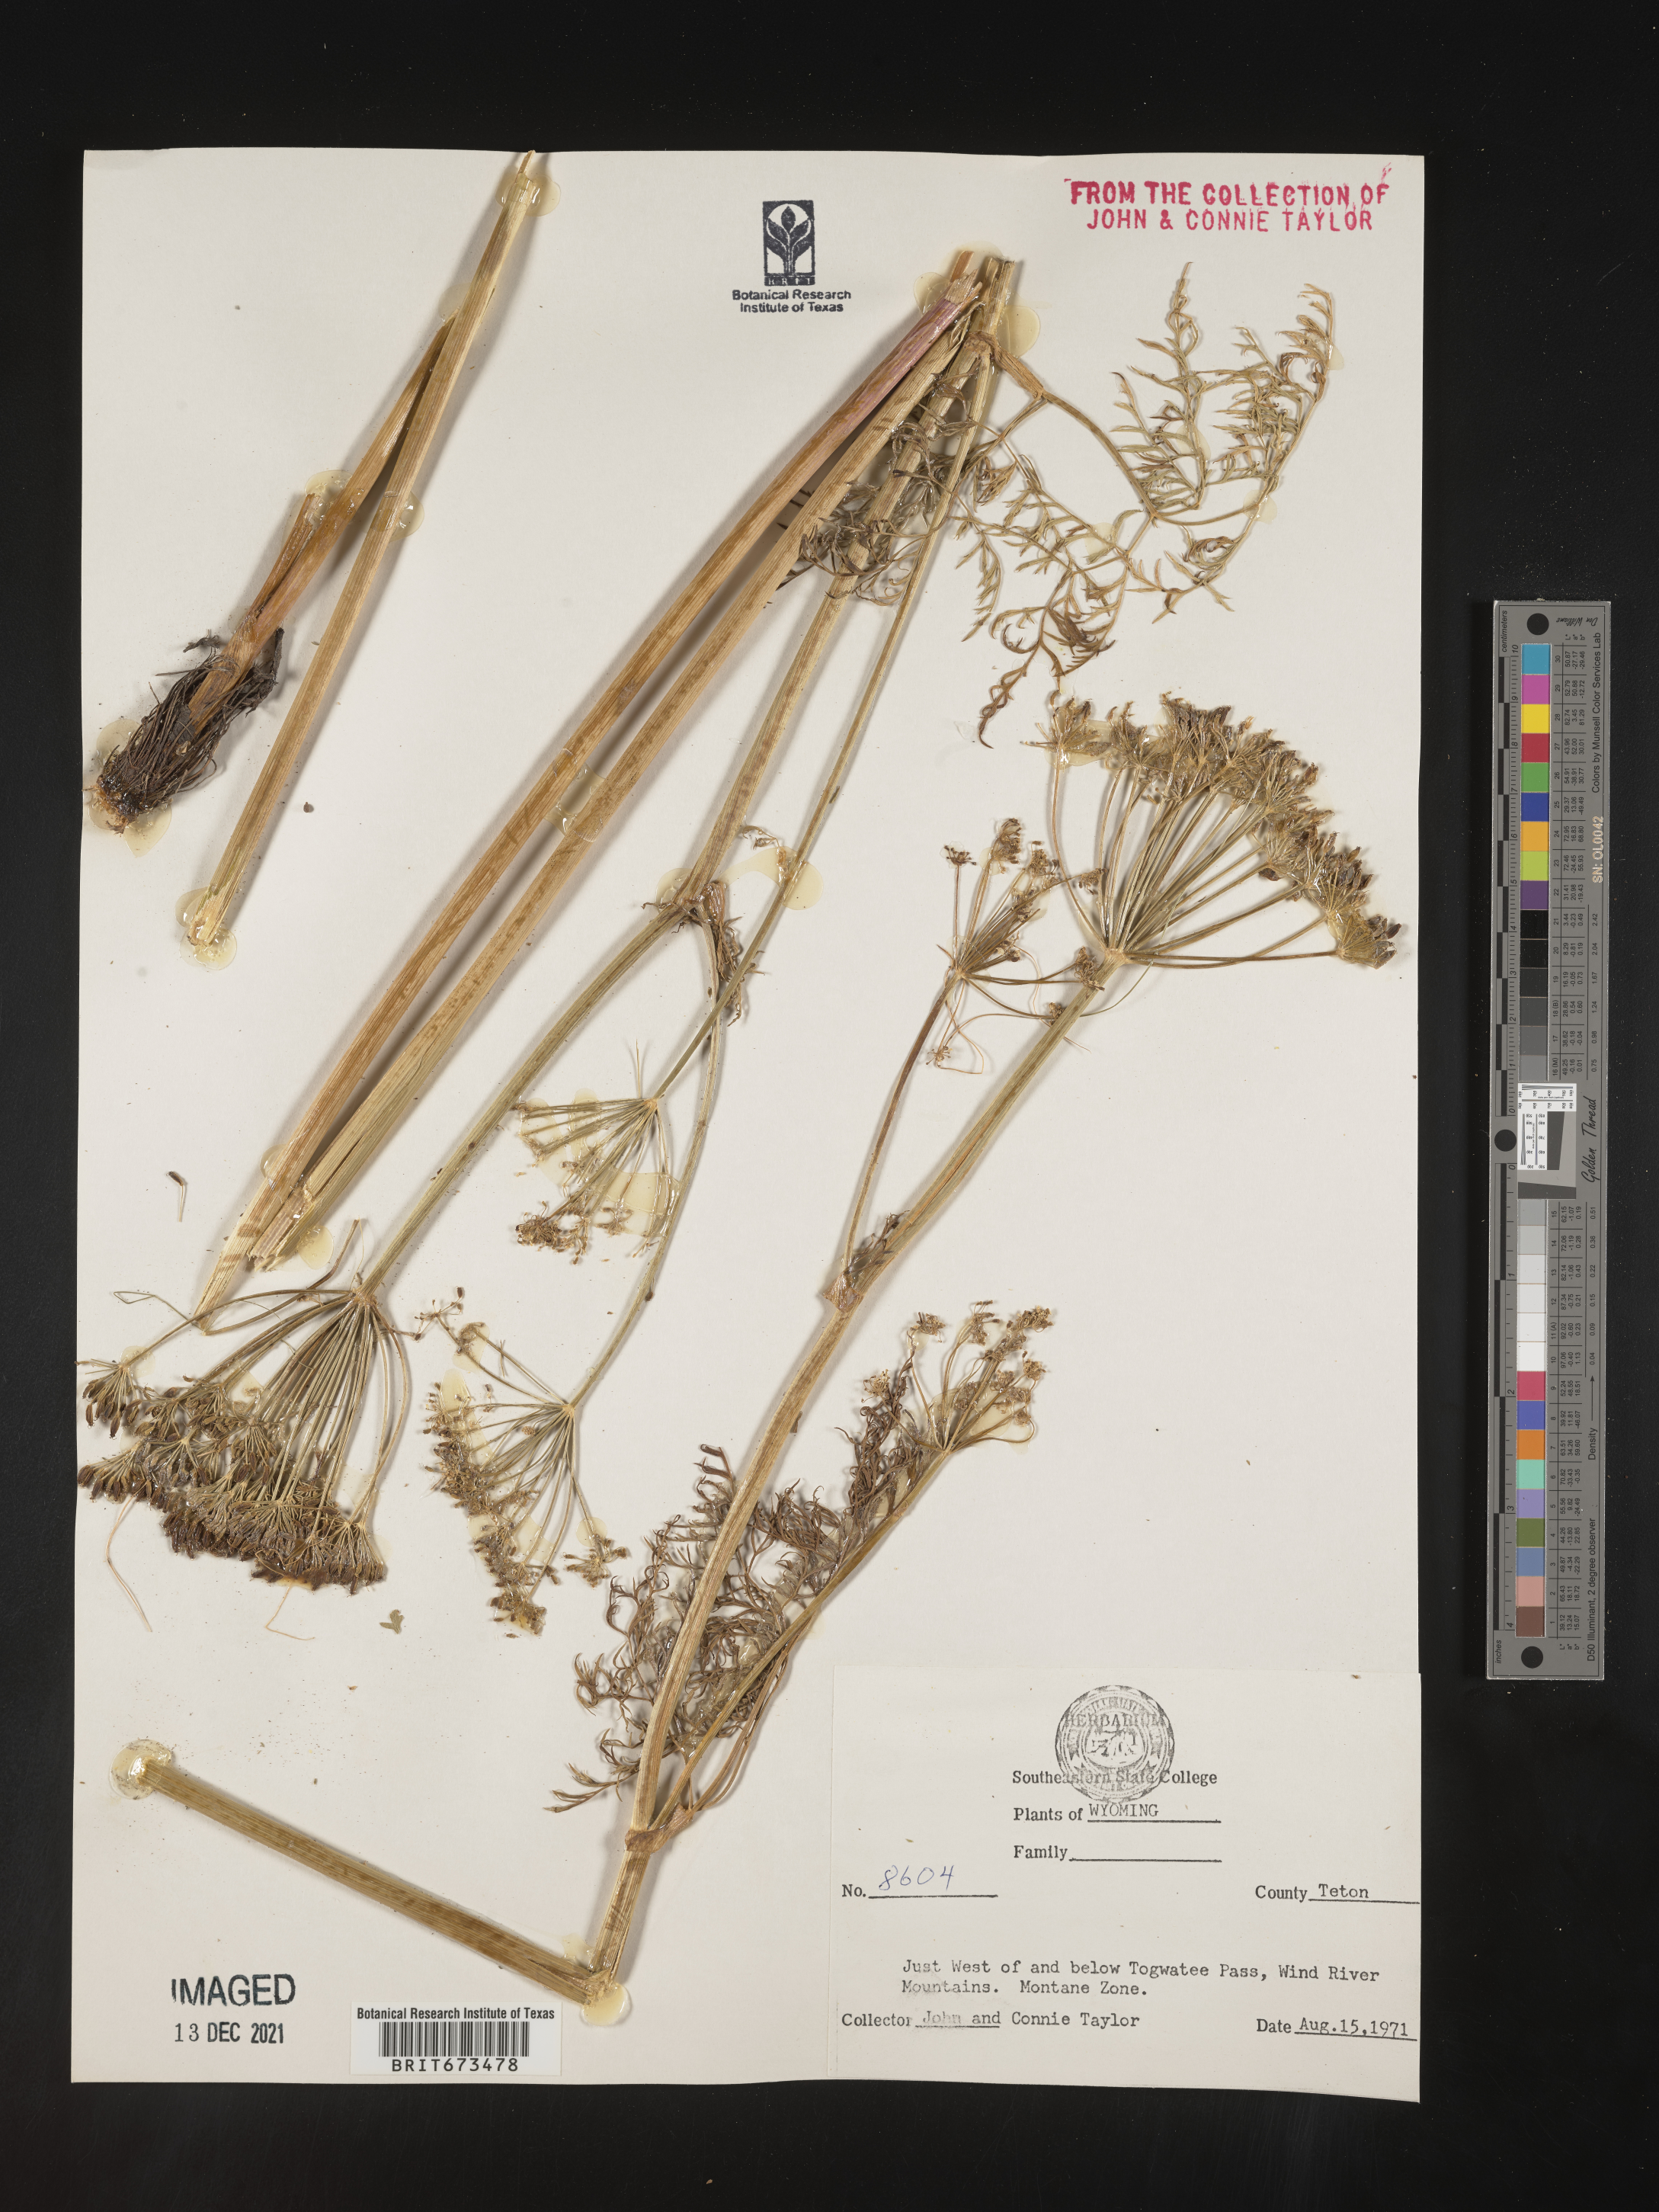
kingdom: Plantae
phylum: Tracheophyta
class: Magnoliopsida
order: Apiales
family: Apiaceae
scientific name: Apiaceae
